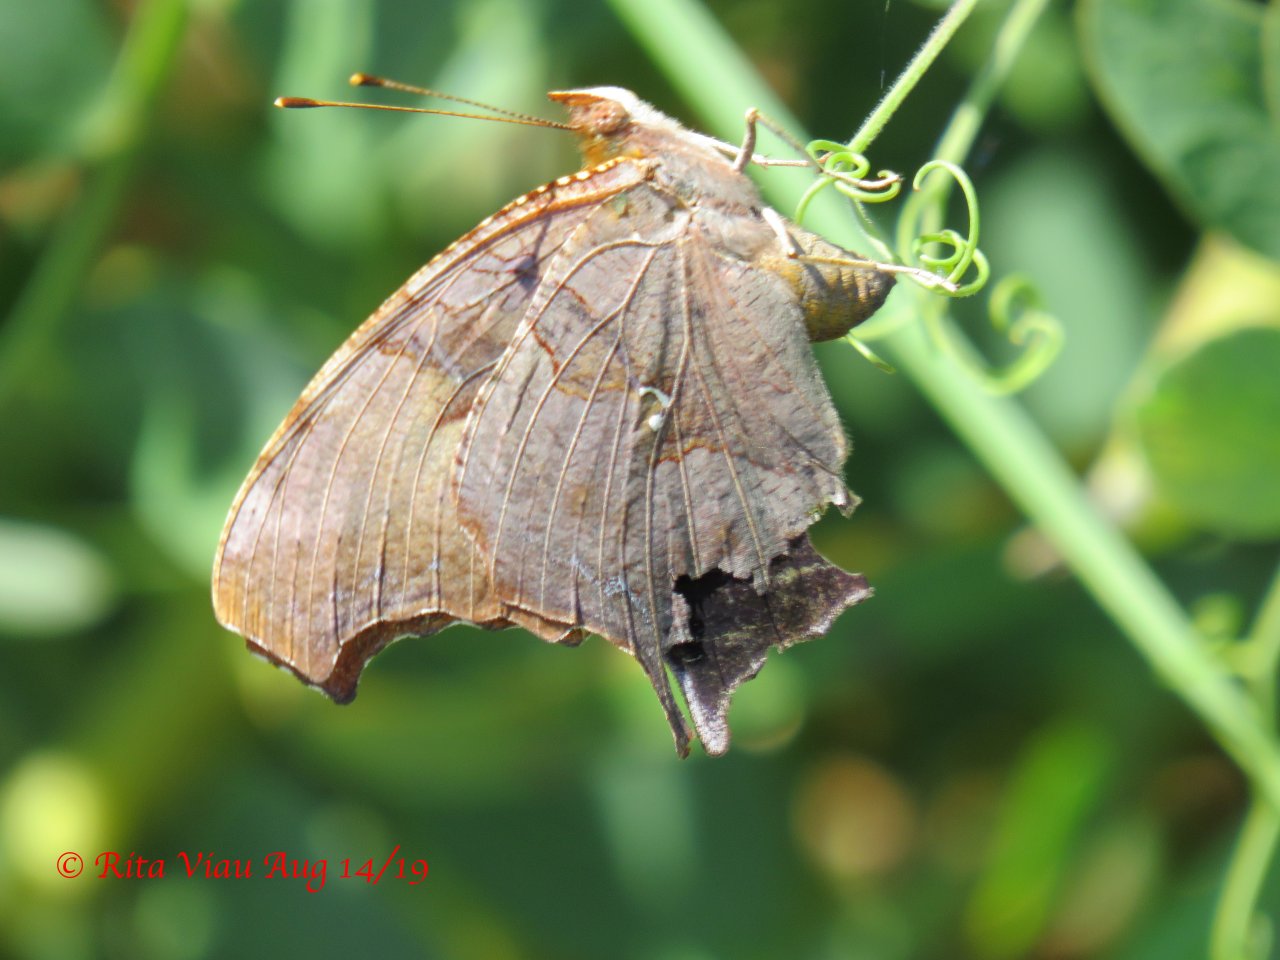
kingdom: Animalia
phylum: Arthropoda
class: Insecta
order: Lepidoptera
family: Nymphalidae
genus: Polygonia
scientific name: Polygonia interrogationis
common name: Question Mark
